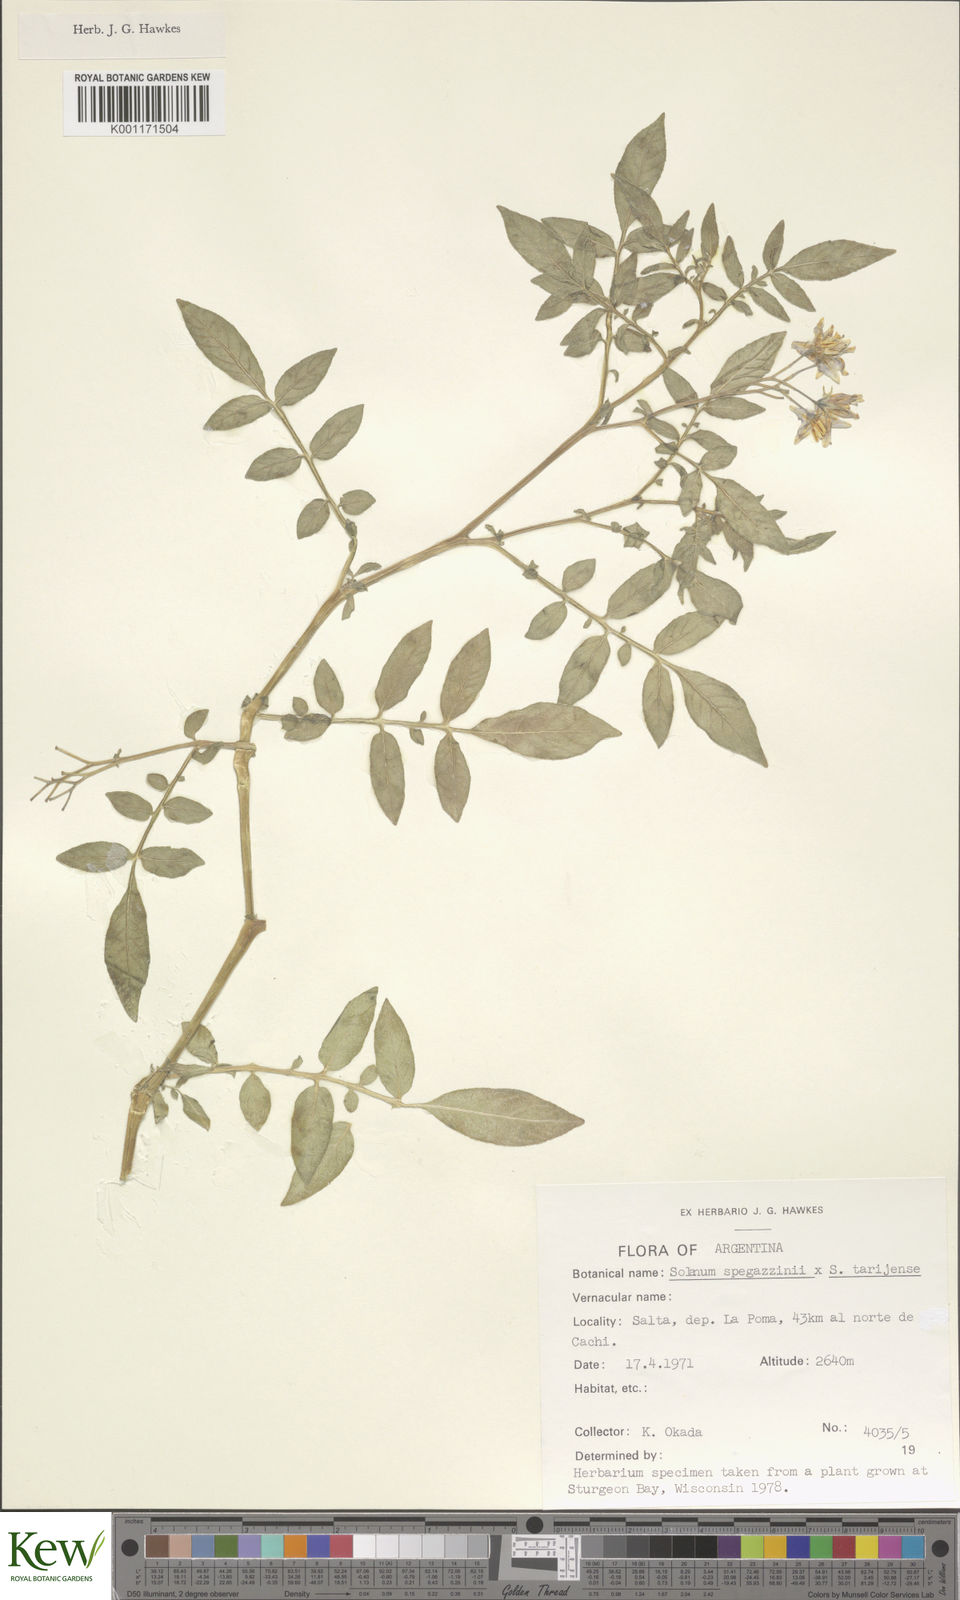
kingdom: Plantae
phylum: Tracheophyta
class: Magnoliopsida
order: Solanales
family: Solanaceae
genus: Solanum
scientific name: Solanum tarijense
